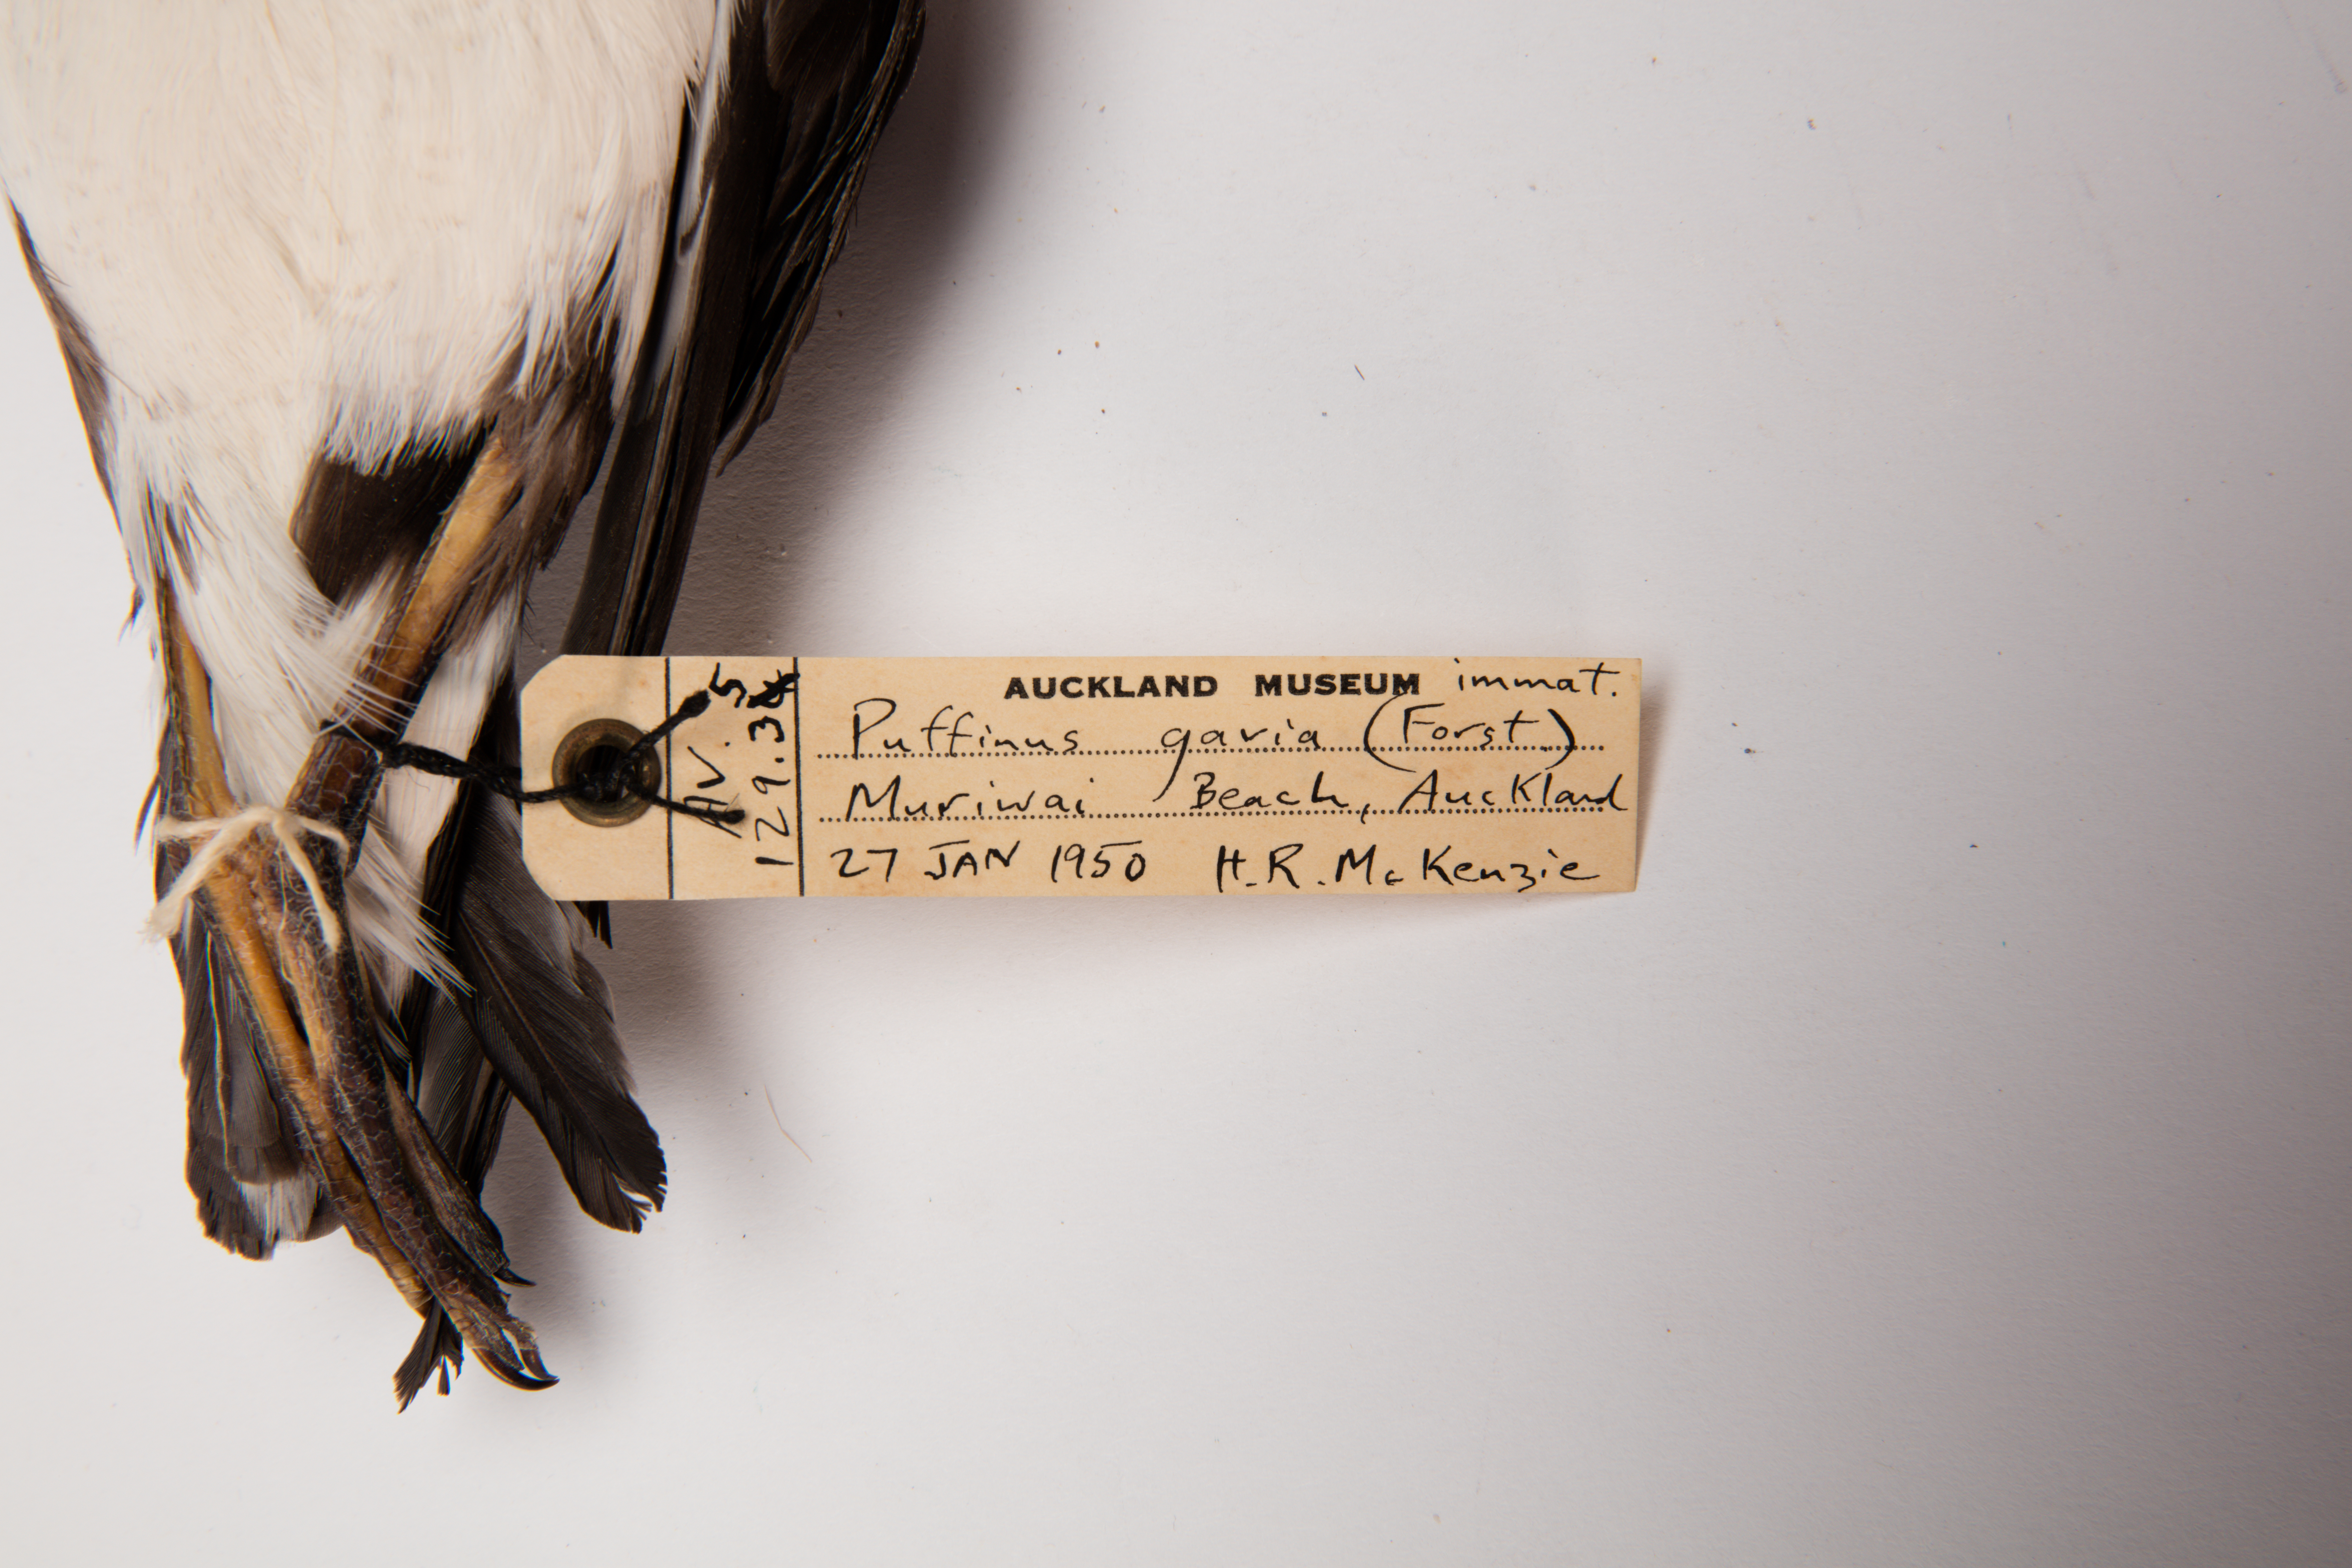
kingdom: Animalia
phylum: Chordata
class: Aves
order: Procellariiformes
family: Procellariidae
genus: Ardenna
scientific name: Ardenna
